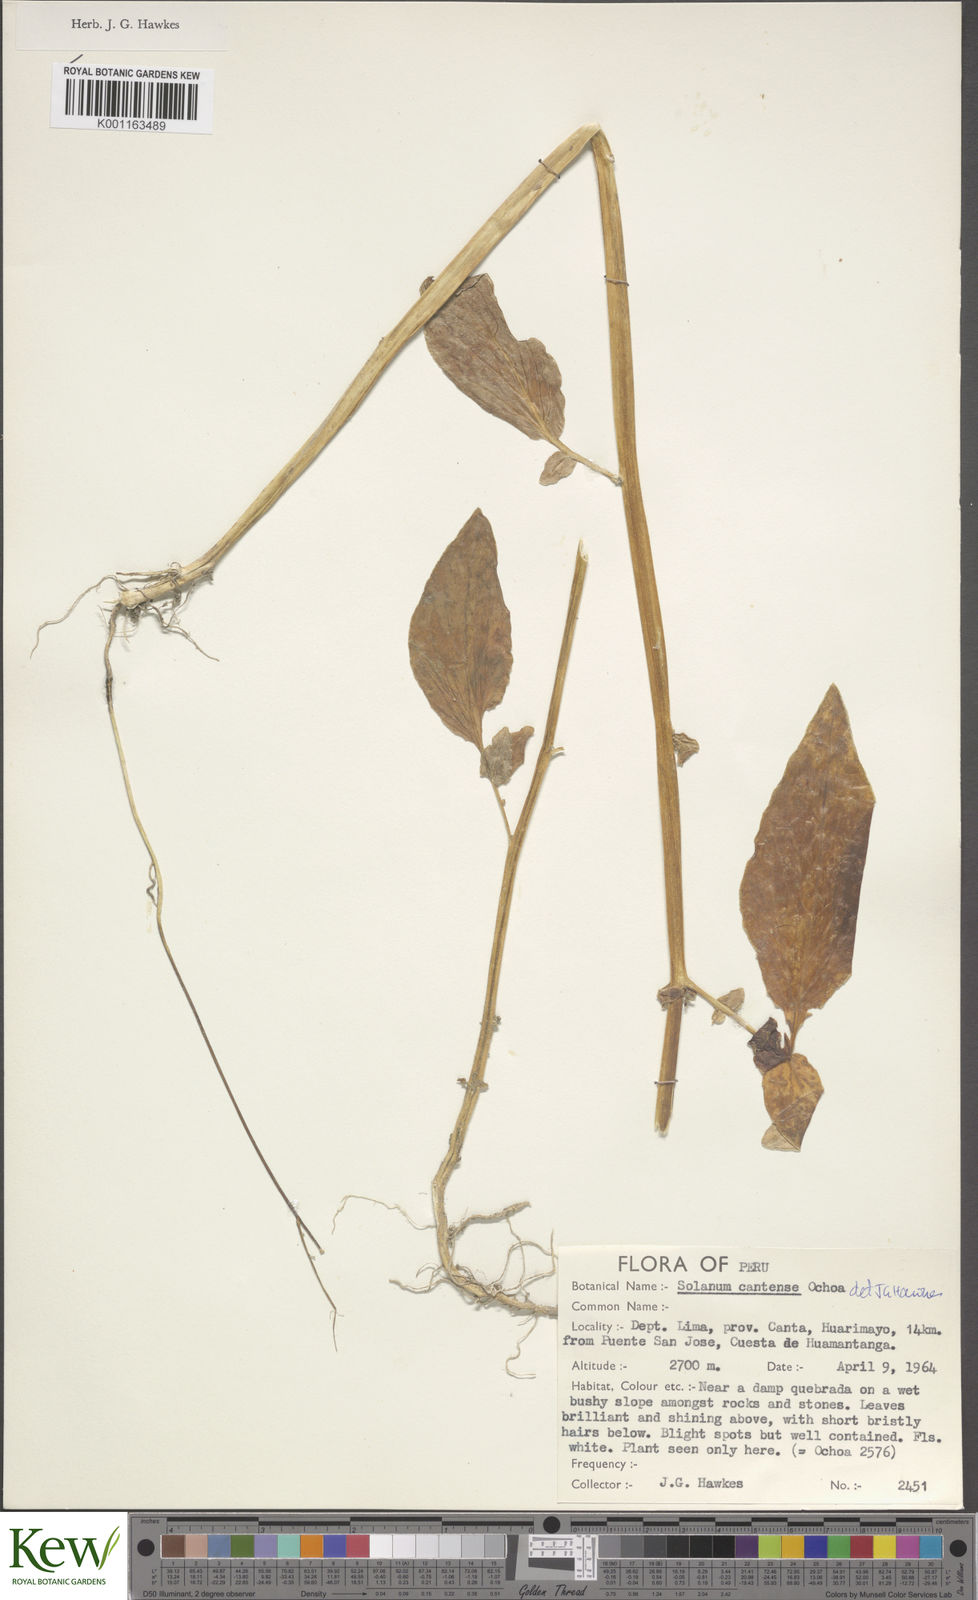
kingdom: Plantae
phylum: Tracheophyta
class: Magnoliopsida
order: Solanales
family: Solanaceae
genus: Solanum
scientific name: Solanum chomatophilum
